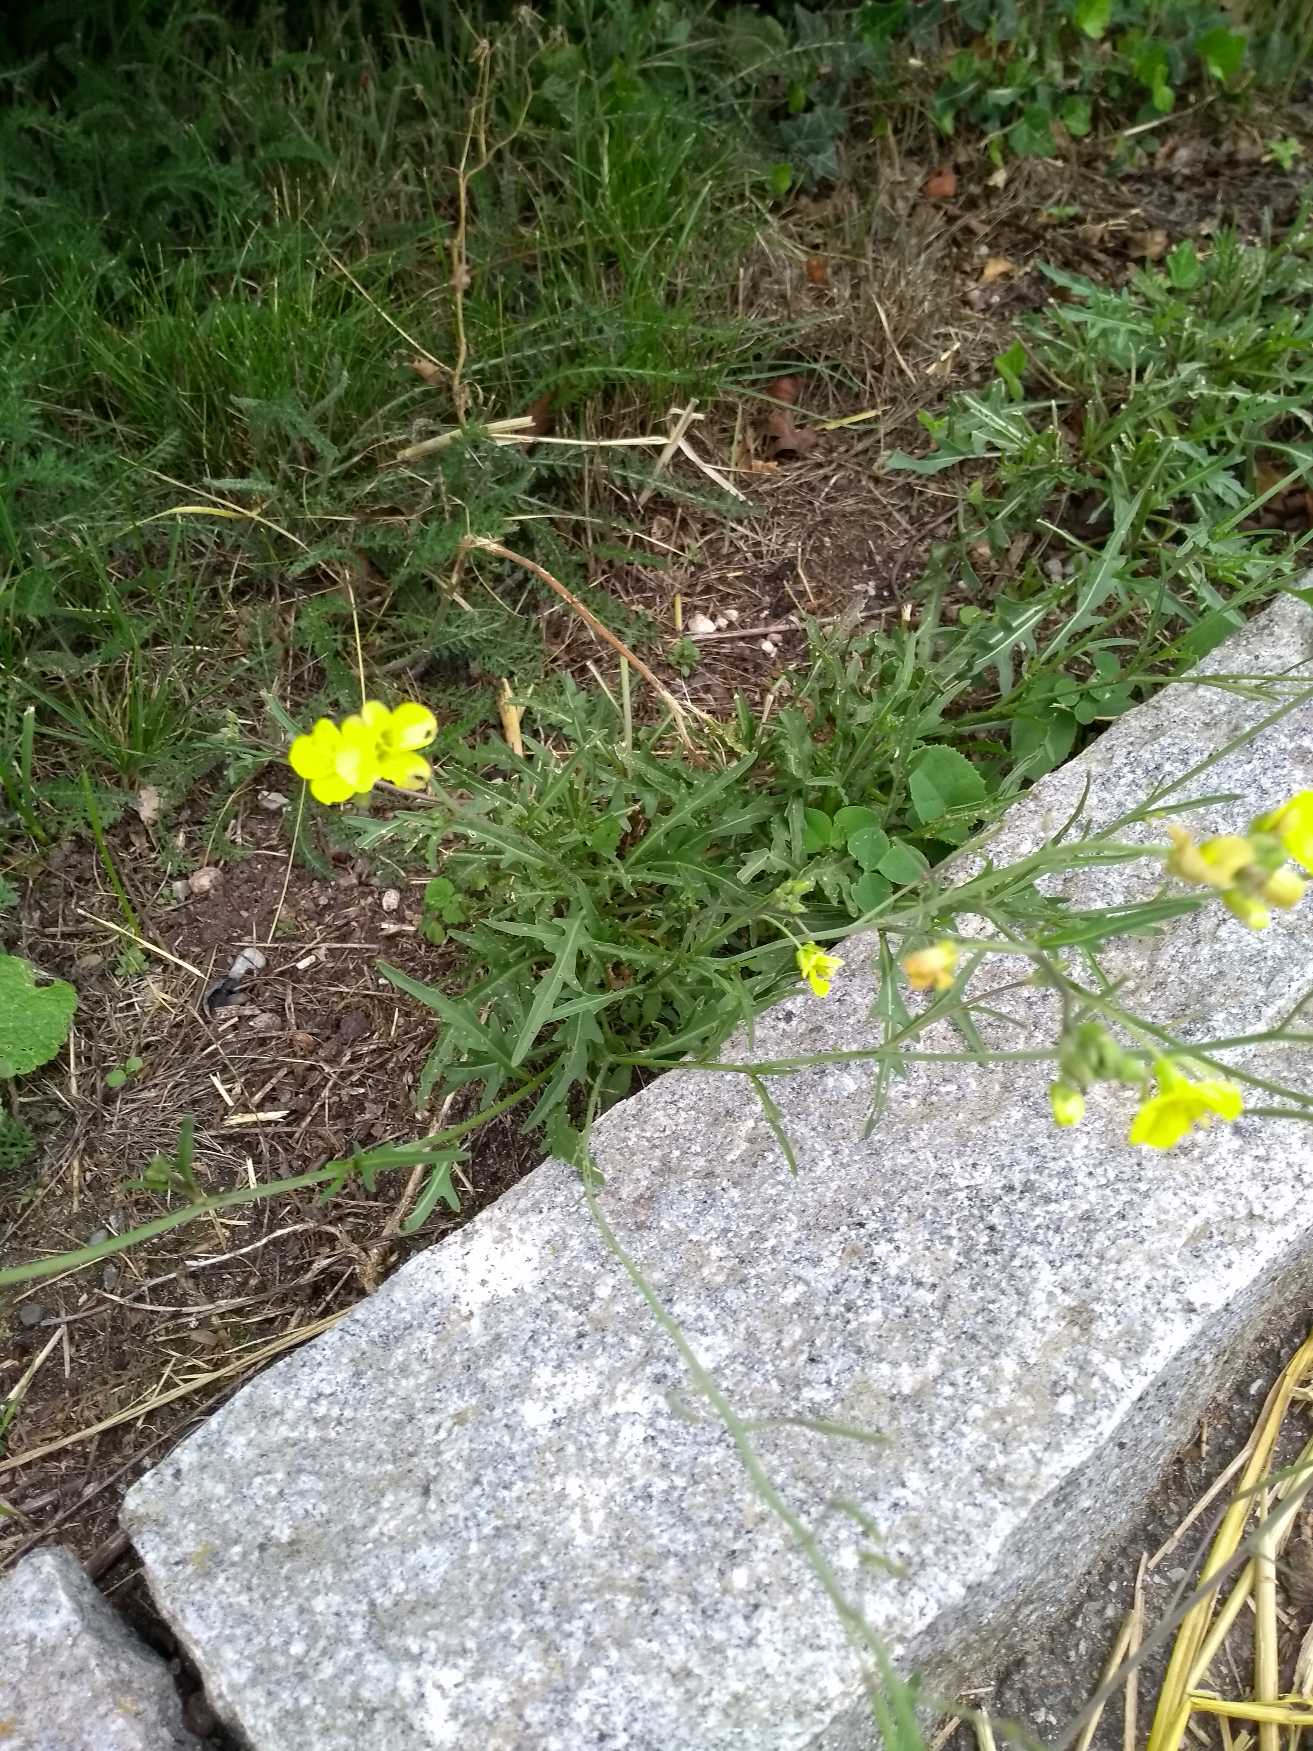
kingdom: Plantae
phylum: Tracheophyta
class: Magnoliopsida
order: Brassicales
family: Brassicaceae
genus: Diplotaxis
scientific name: Diplotaxis tenuifolia
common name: Sandsennep
